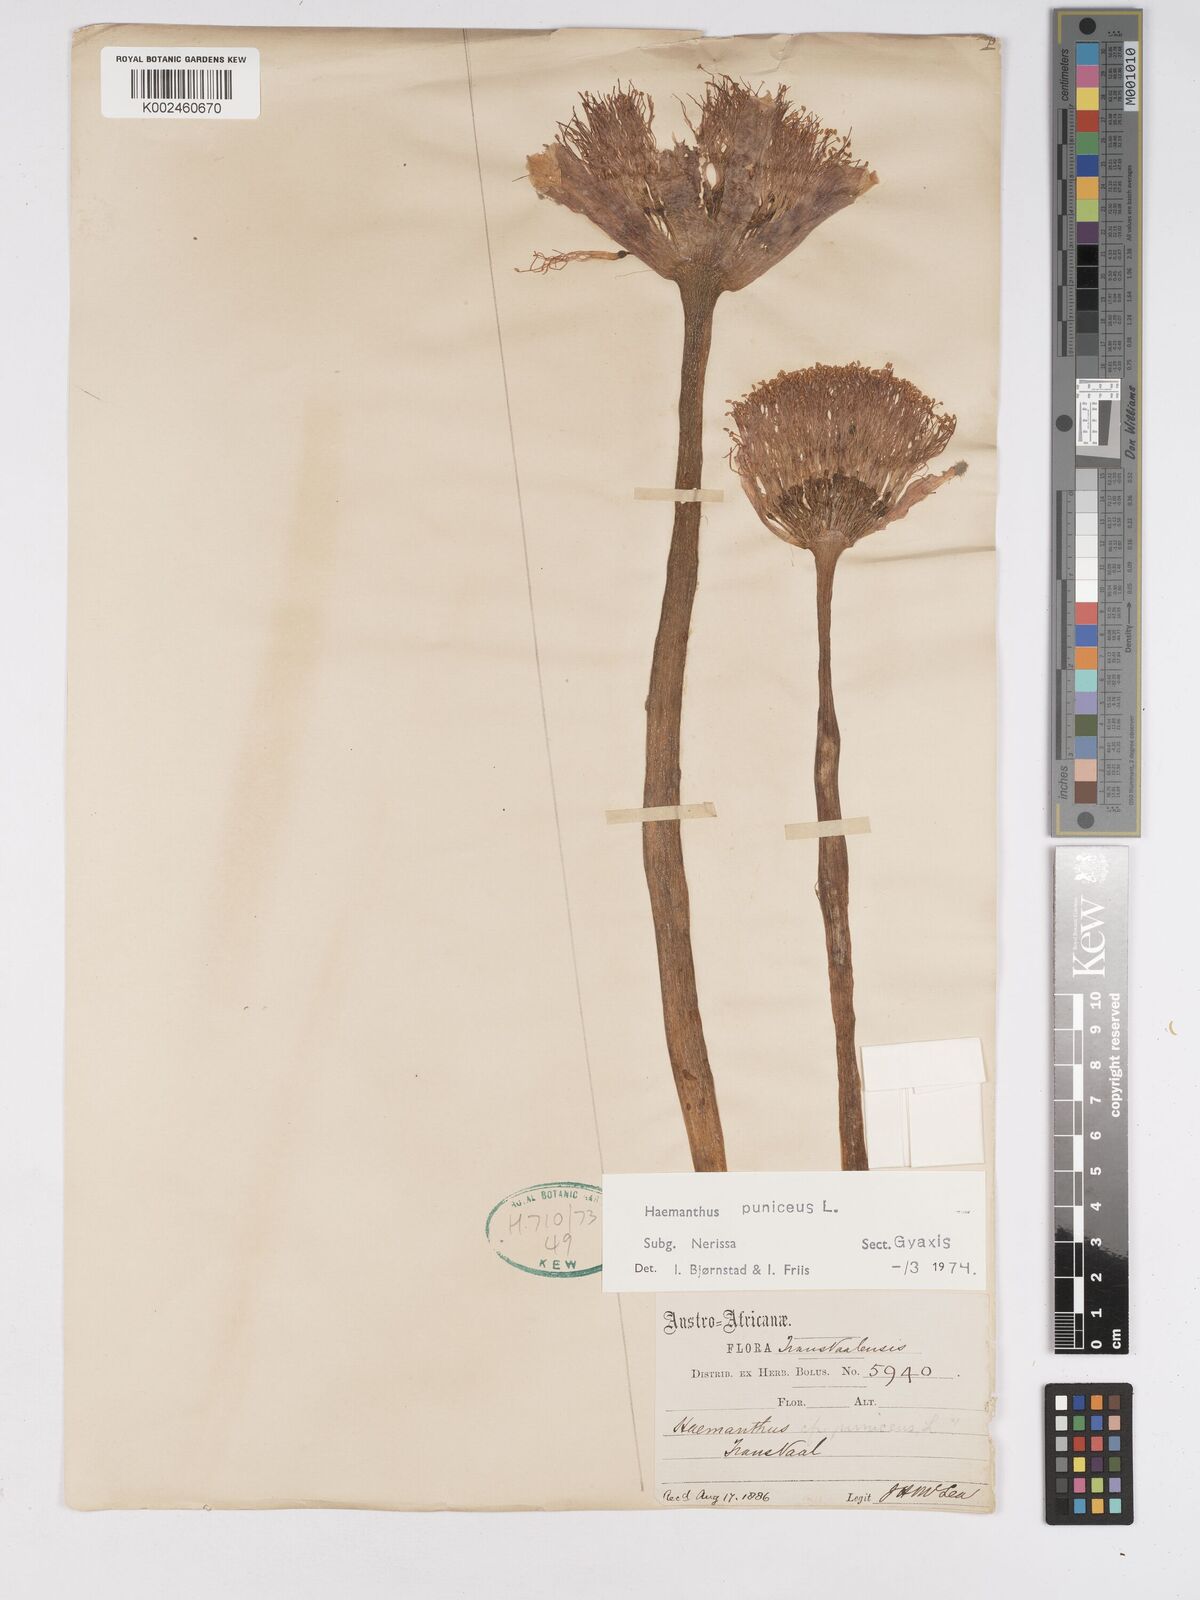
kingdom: Plantae
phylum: Tracheophyta
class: Liliopsida
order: Asparagales
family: Amaryllidaceae
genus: Scadoxus
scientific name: Scadoxus puniceus
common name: Royal-paintbrush
